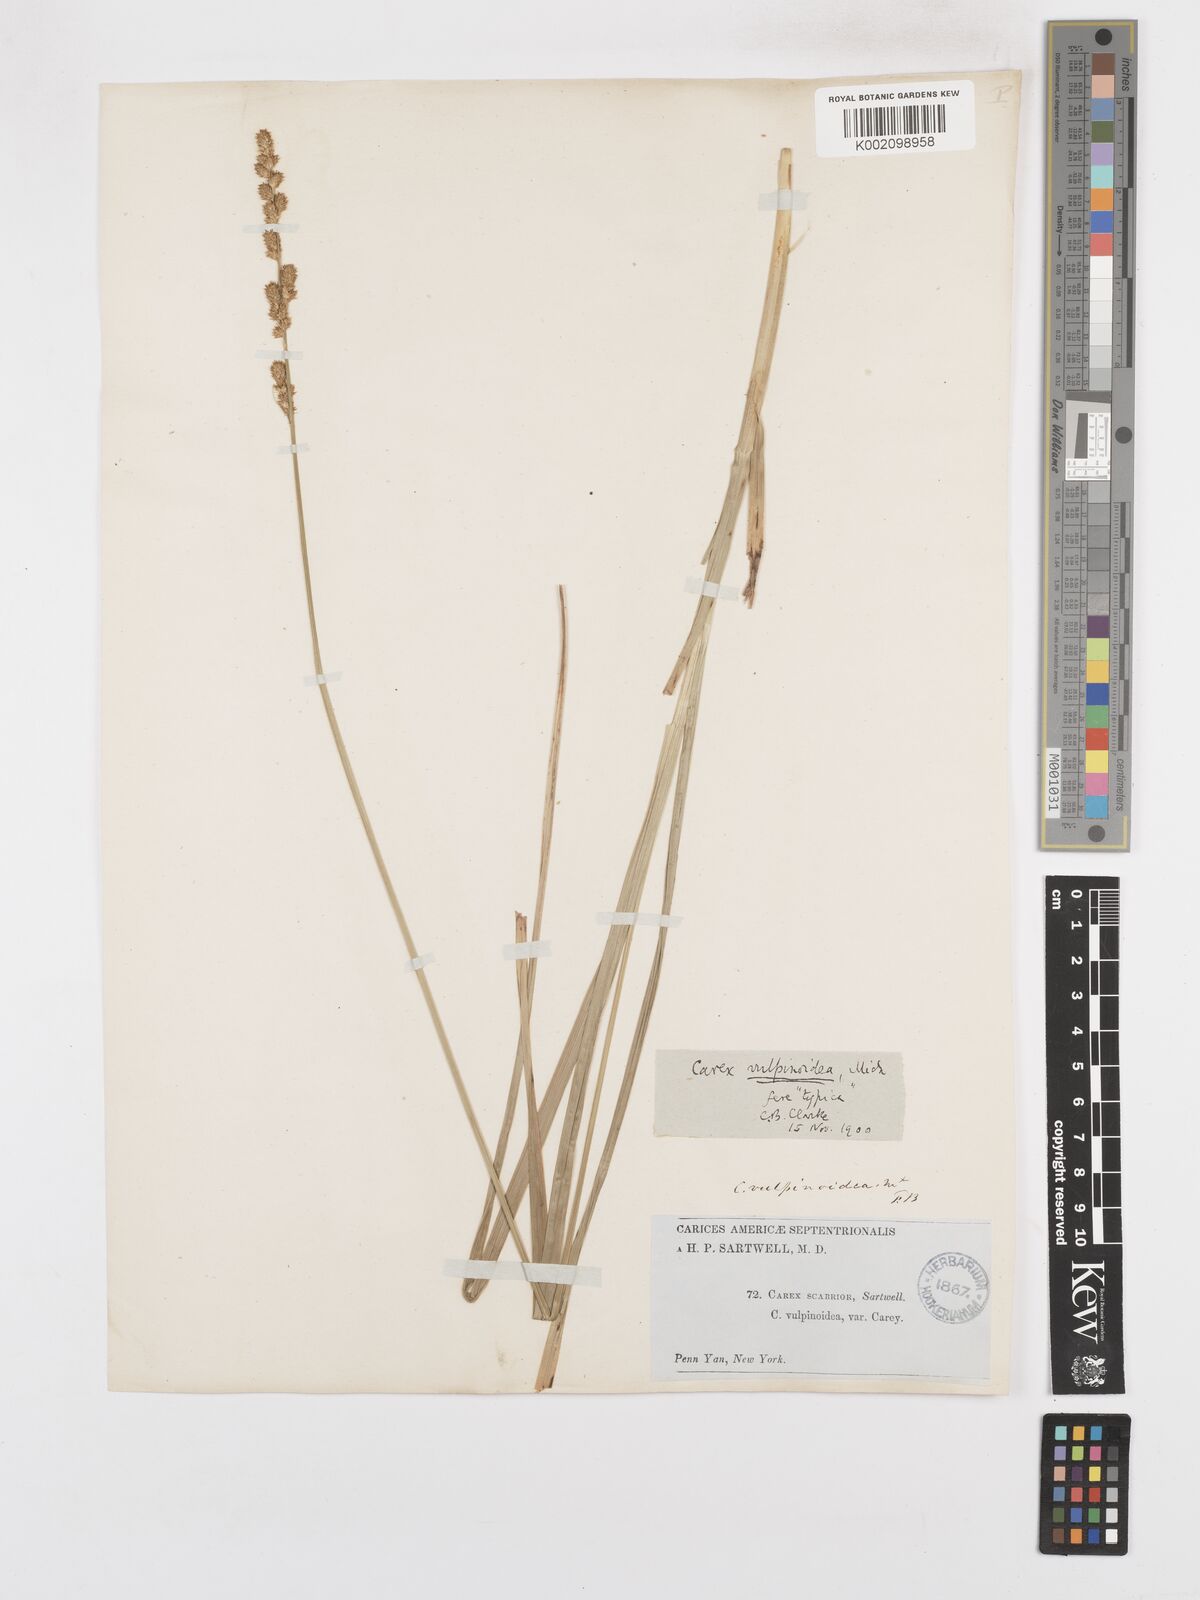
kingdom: Plantae
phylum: Tracheophyta
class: Liliopsida
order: Poales
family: Cyperaceae
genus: Carex
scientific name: Carex vulpinoidea
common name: American fox-sedge
